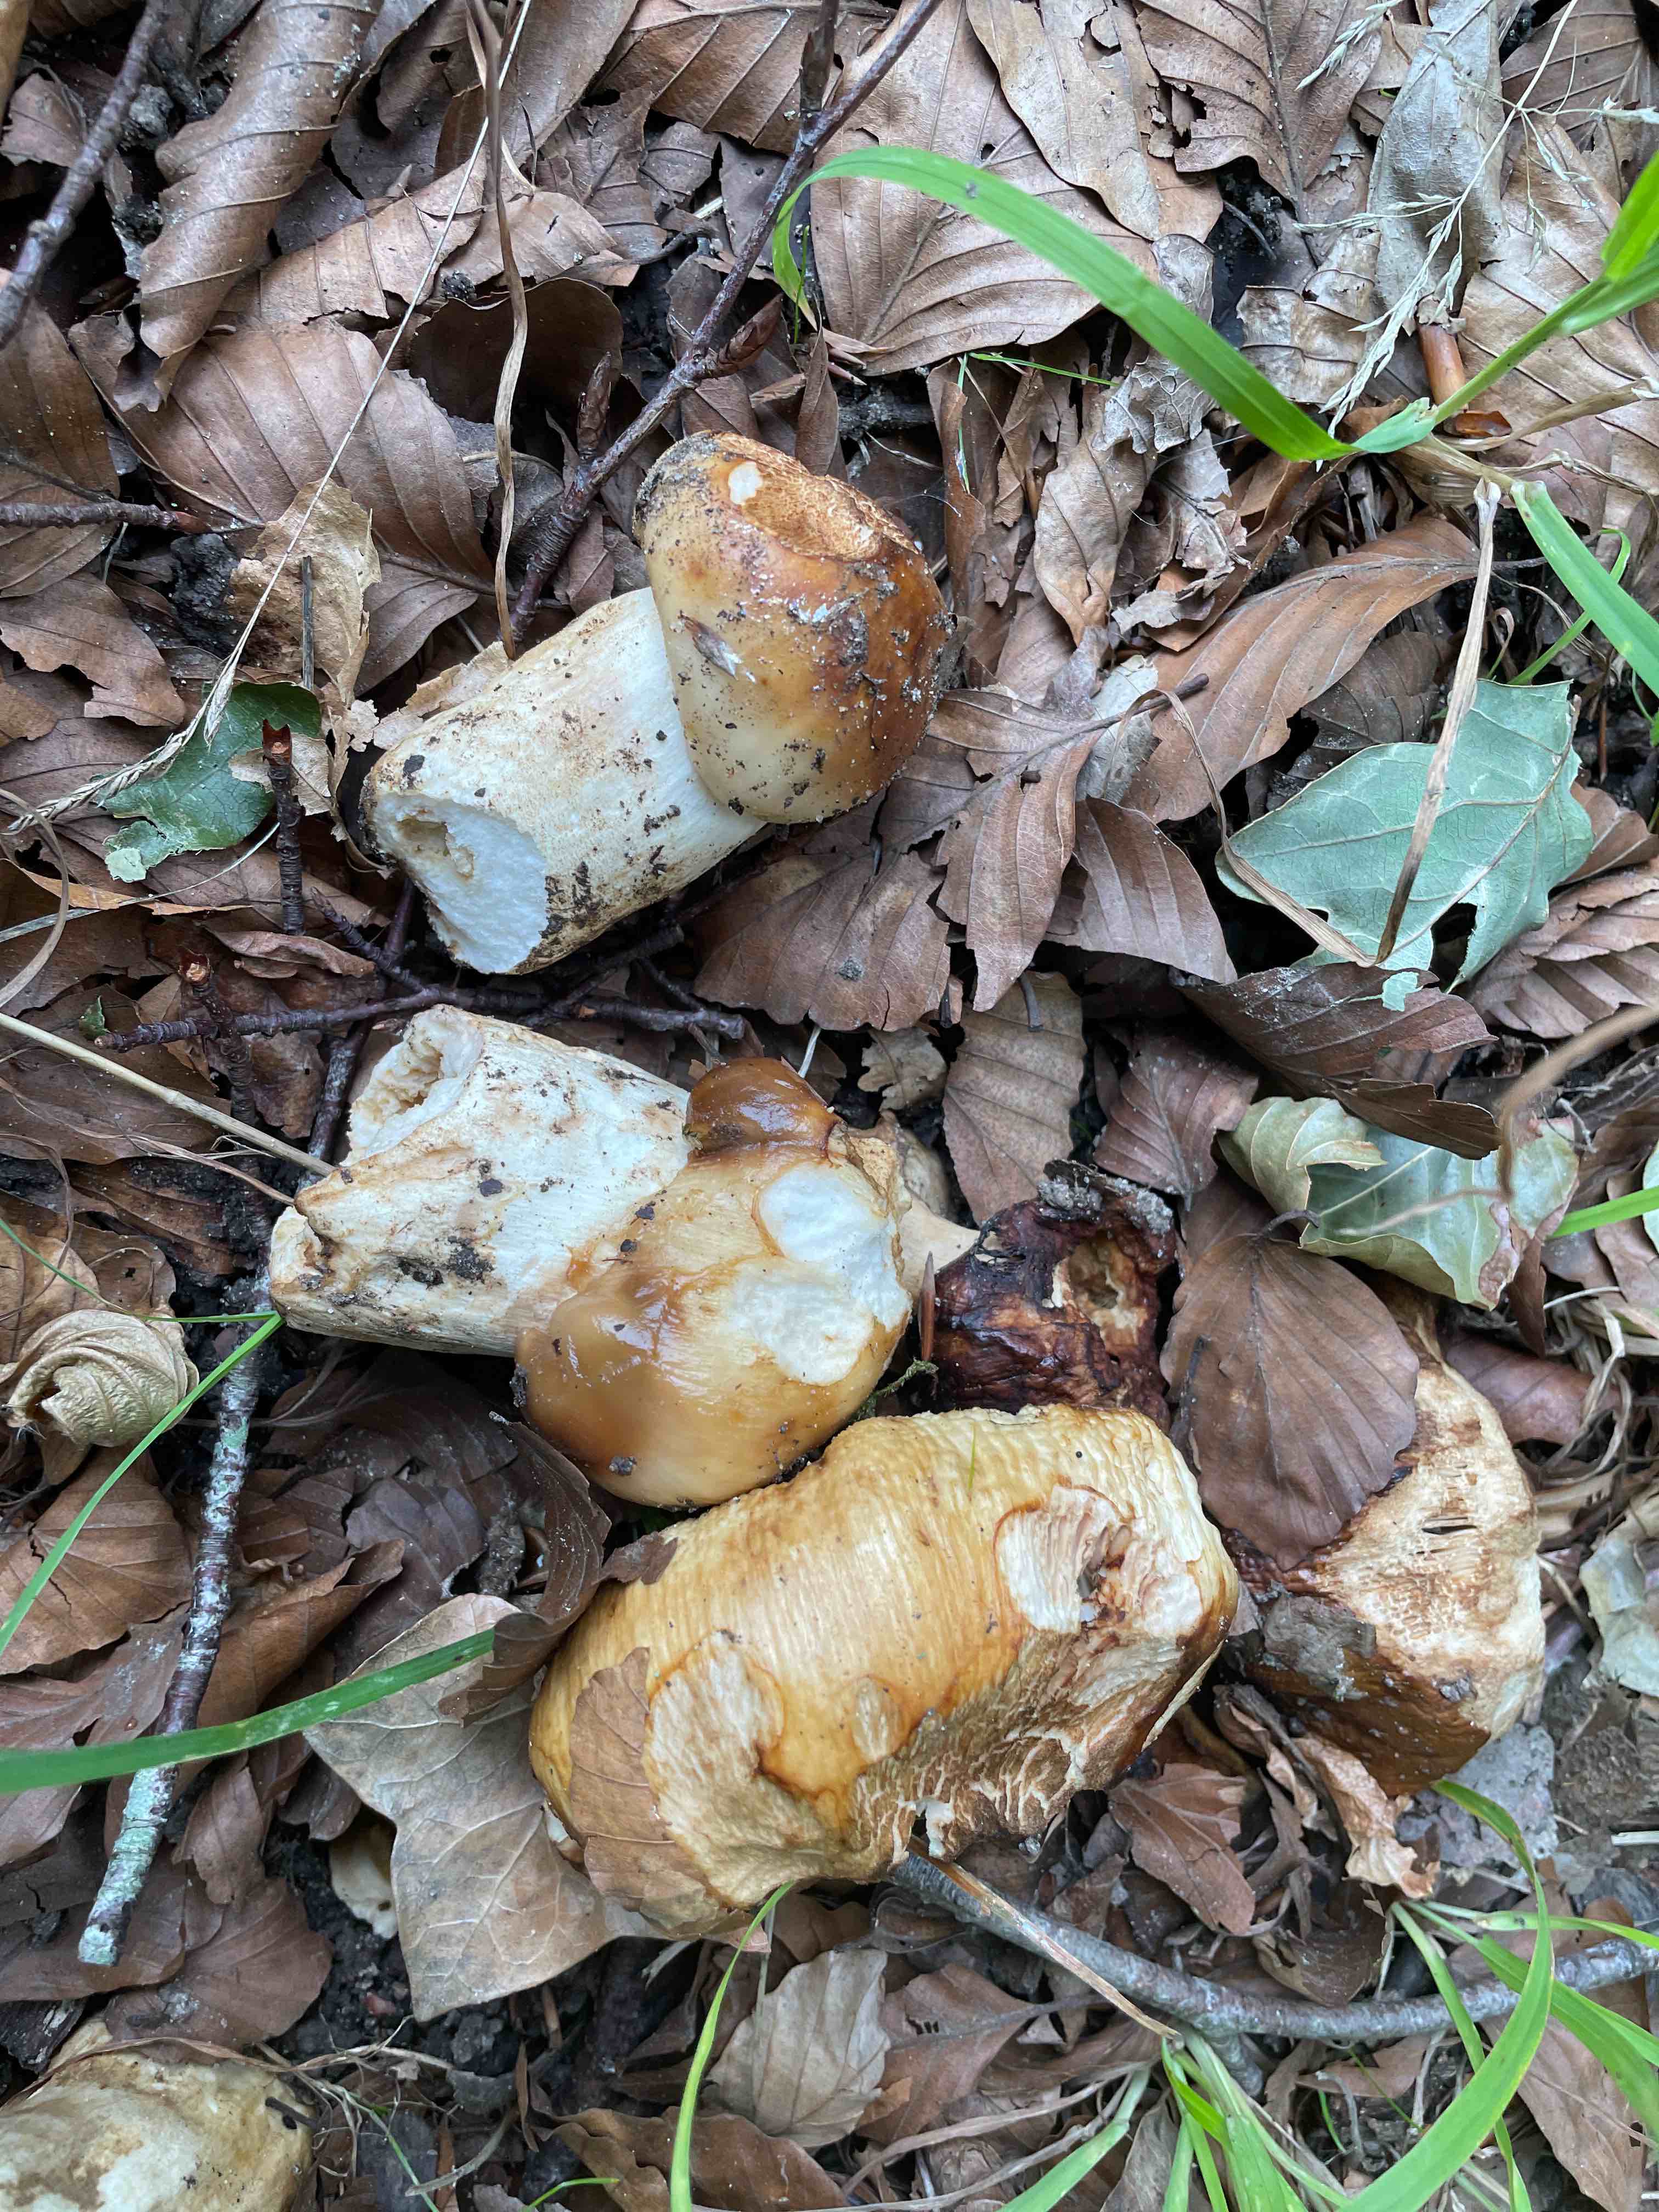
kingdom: Fungi
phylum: Basidiomycota
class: Agaricomycetes
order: Russulales
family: Russulaceae
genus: Russula
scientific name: Russula foetens
